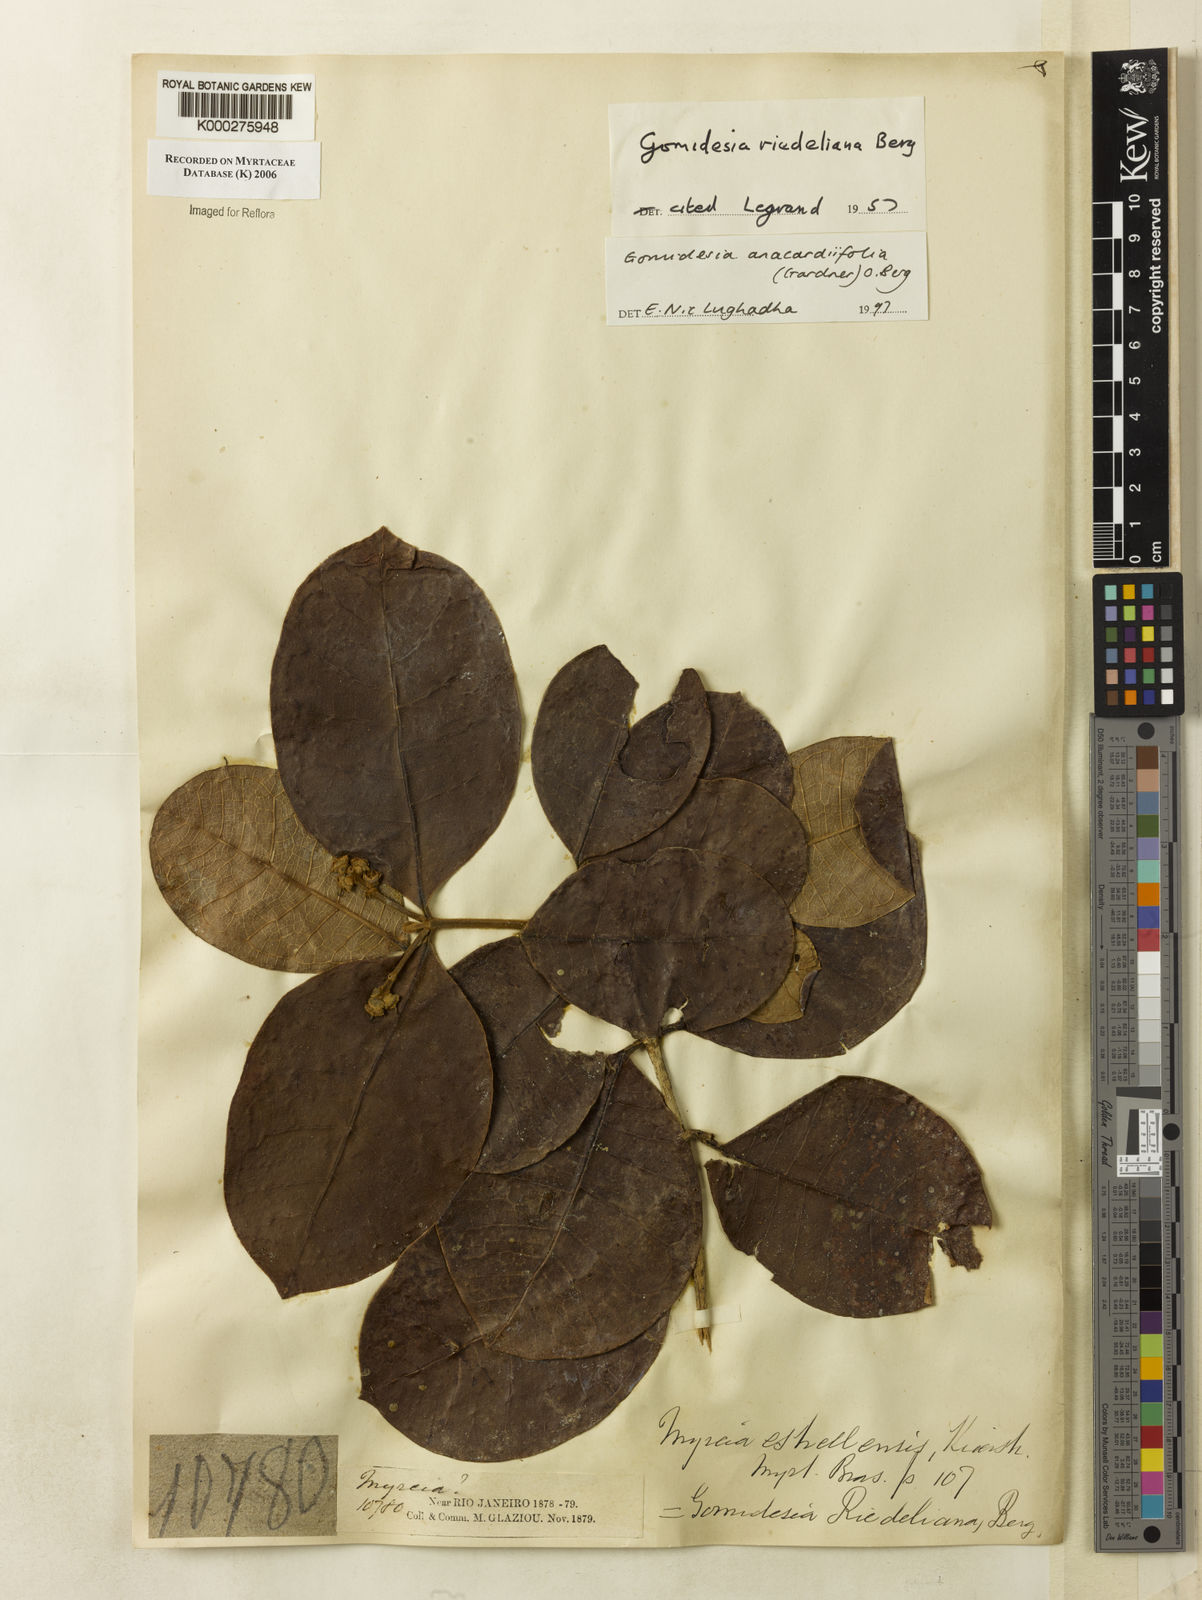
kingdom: Plantae
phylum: Tracheophyta
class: Magnoliopsida
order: Myrtales
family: Myrtaceae
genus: Myrcia
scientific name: Myrcia anacardiifolia
